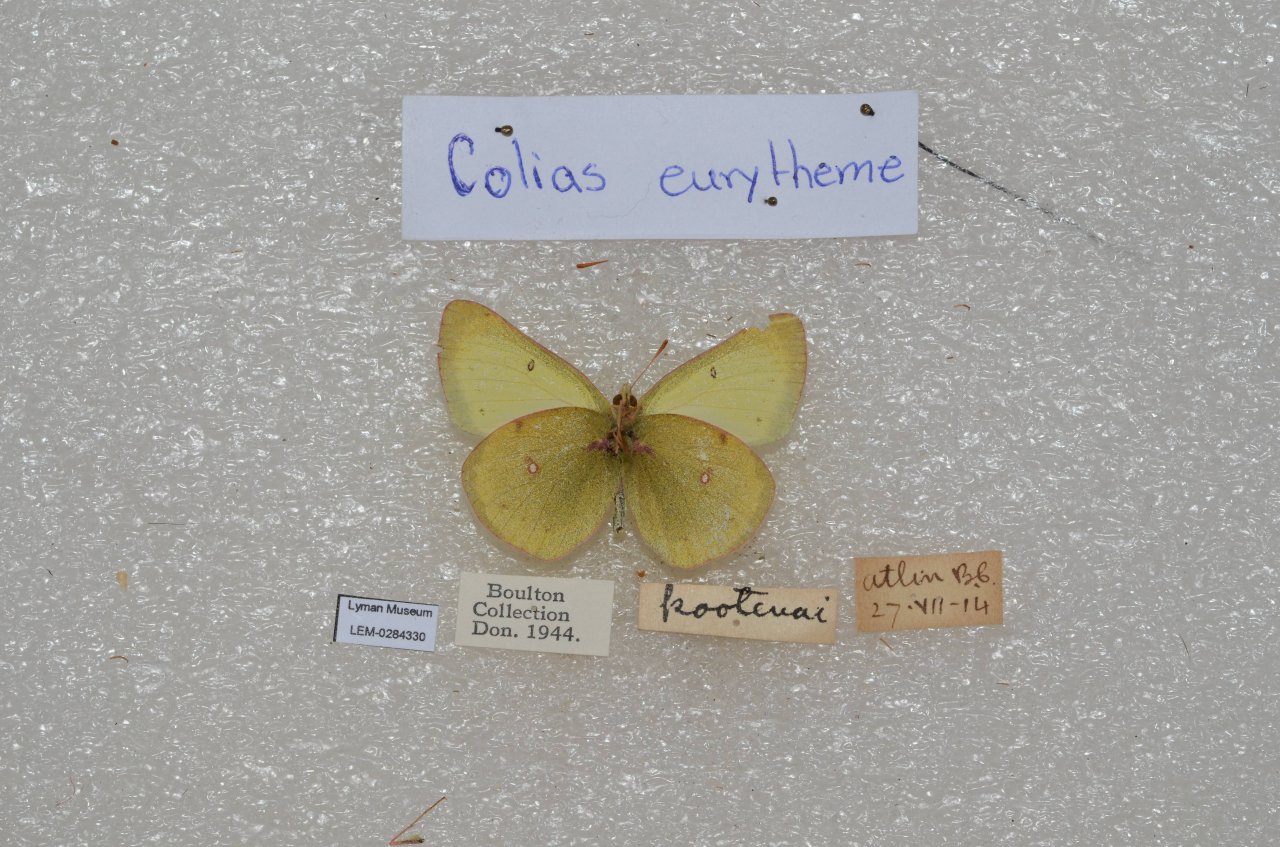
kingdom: Animalia
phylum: Arthropoda
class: Insecta
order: Lepidoptera
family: Pieridae
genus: Colias
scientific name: Colias eurytheme
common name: Orange Sulphur
